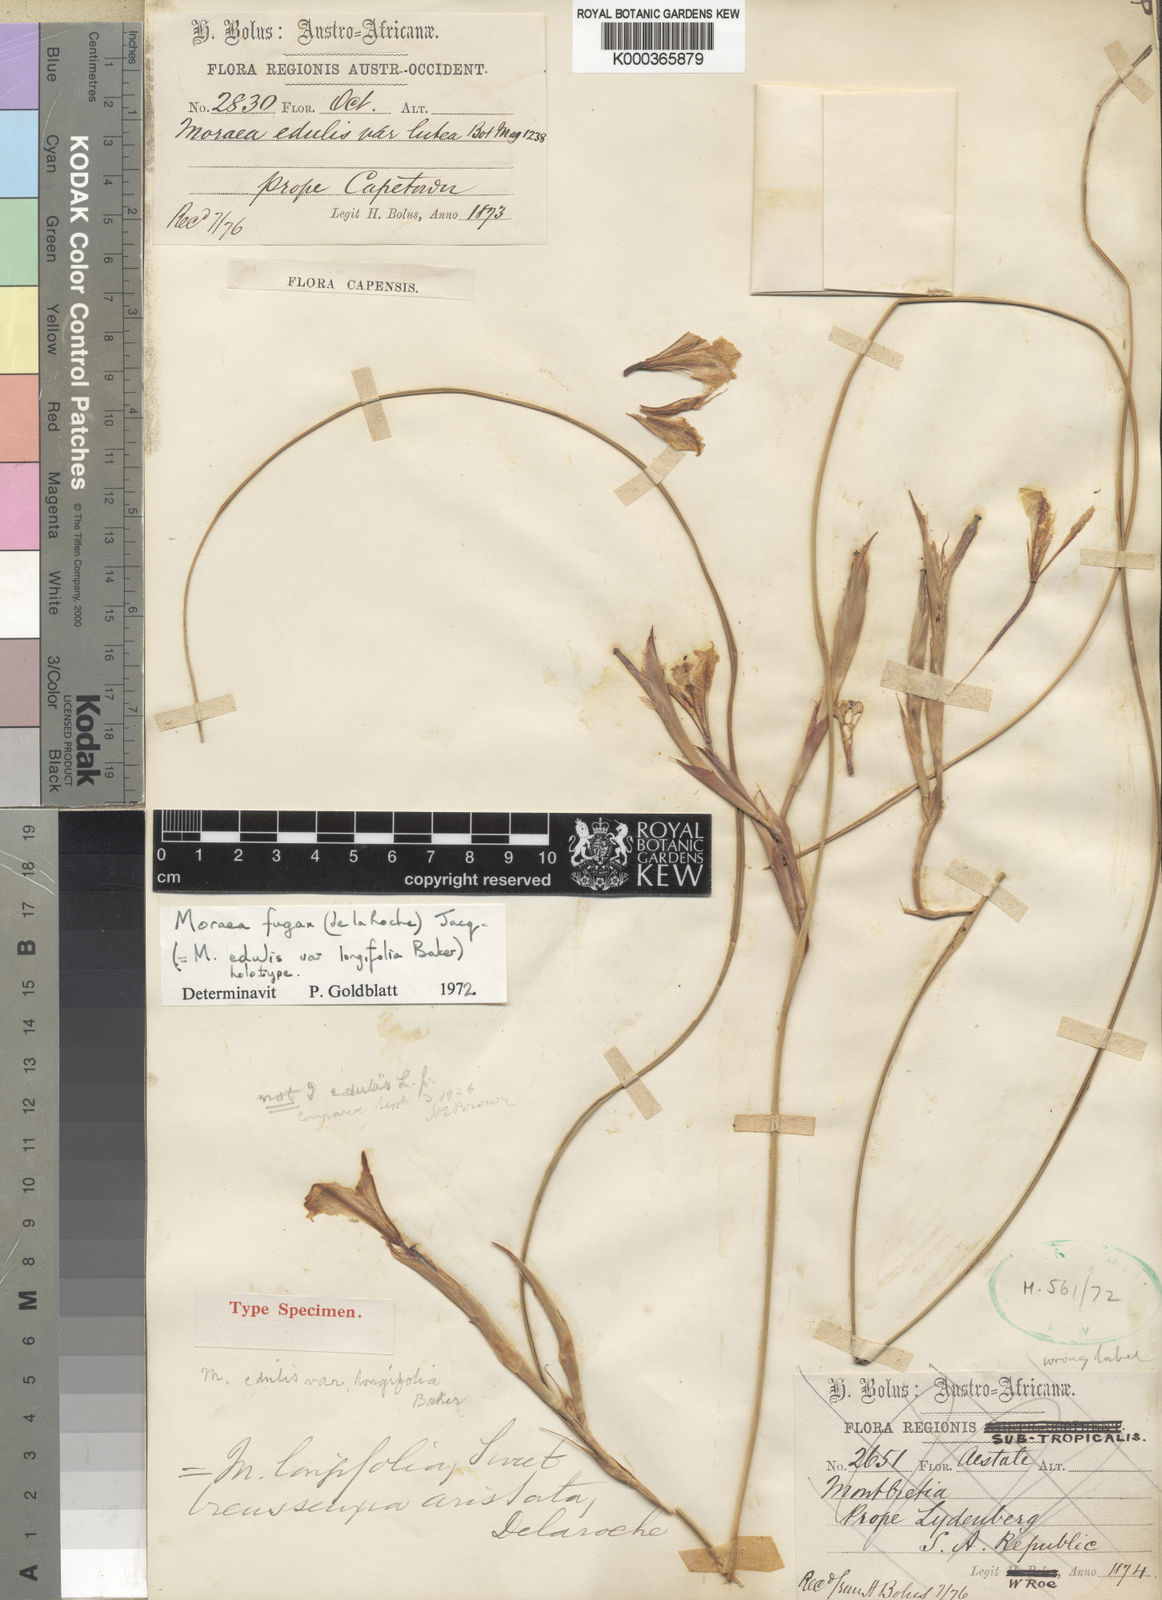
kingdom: Plantae
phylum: Tracheophyta
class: Liliopsida
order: Asparagales
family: Iridaceae
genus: Moraea
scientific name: Moraea fugax
